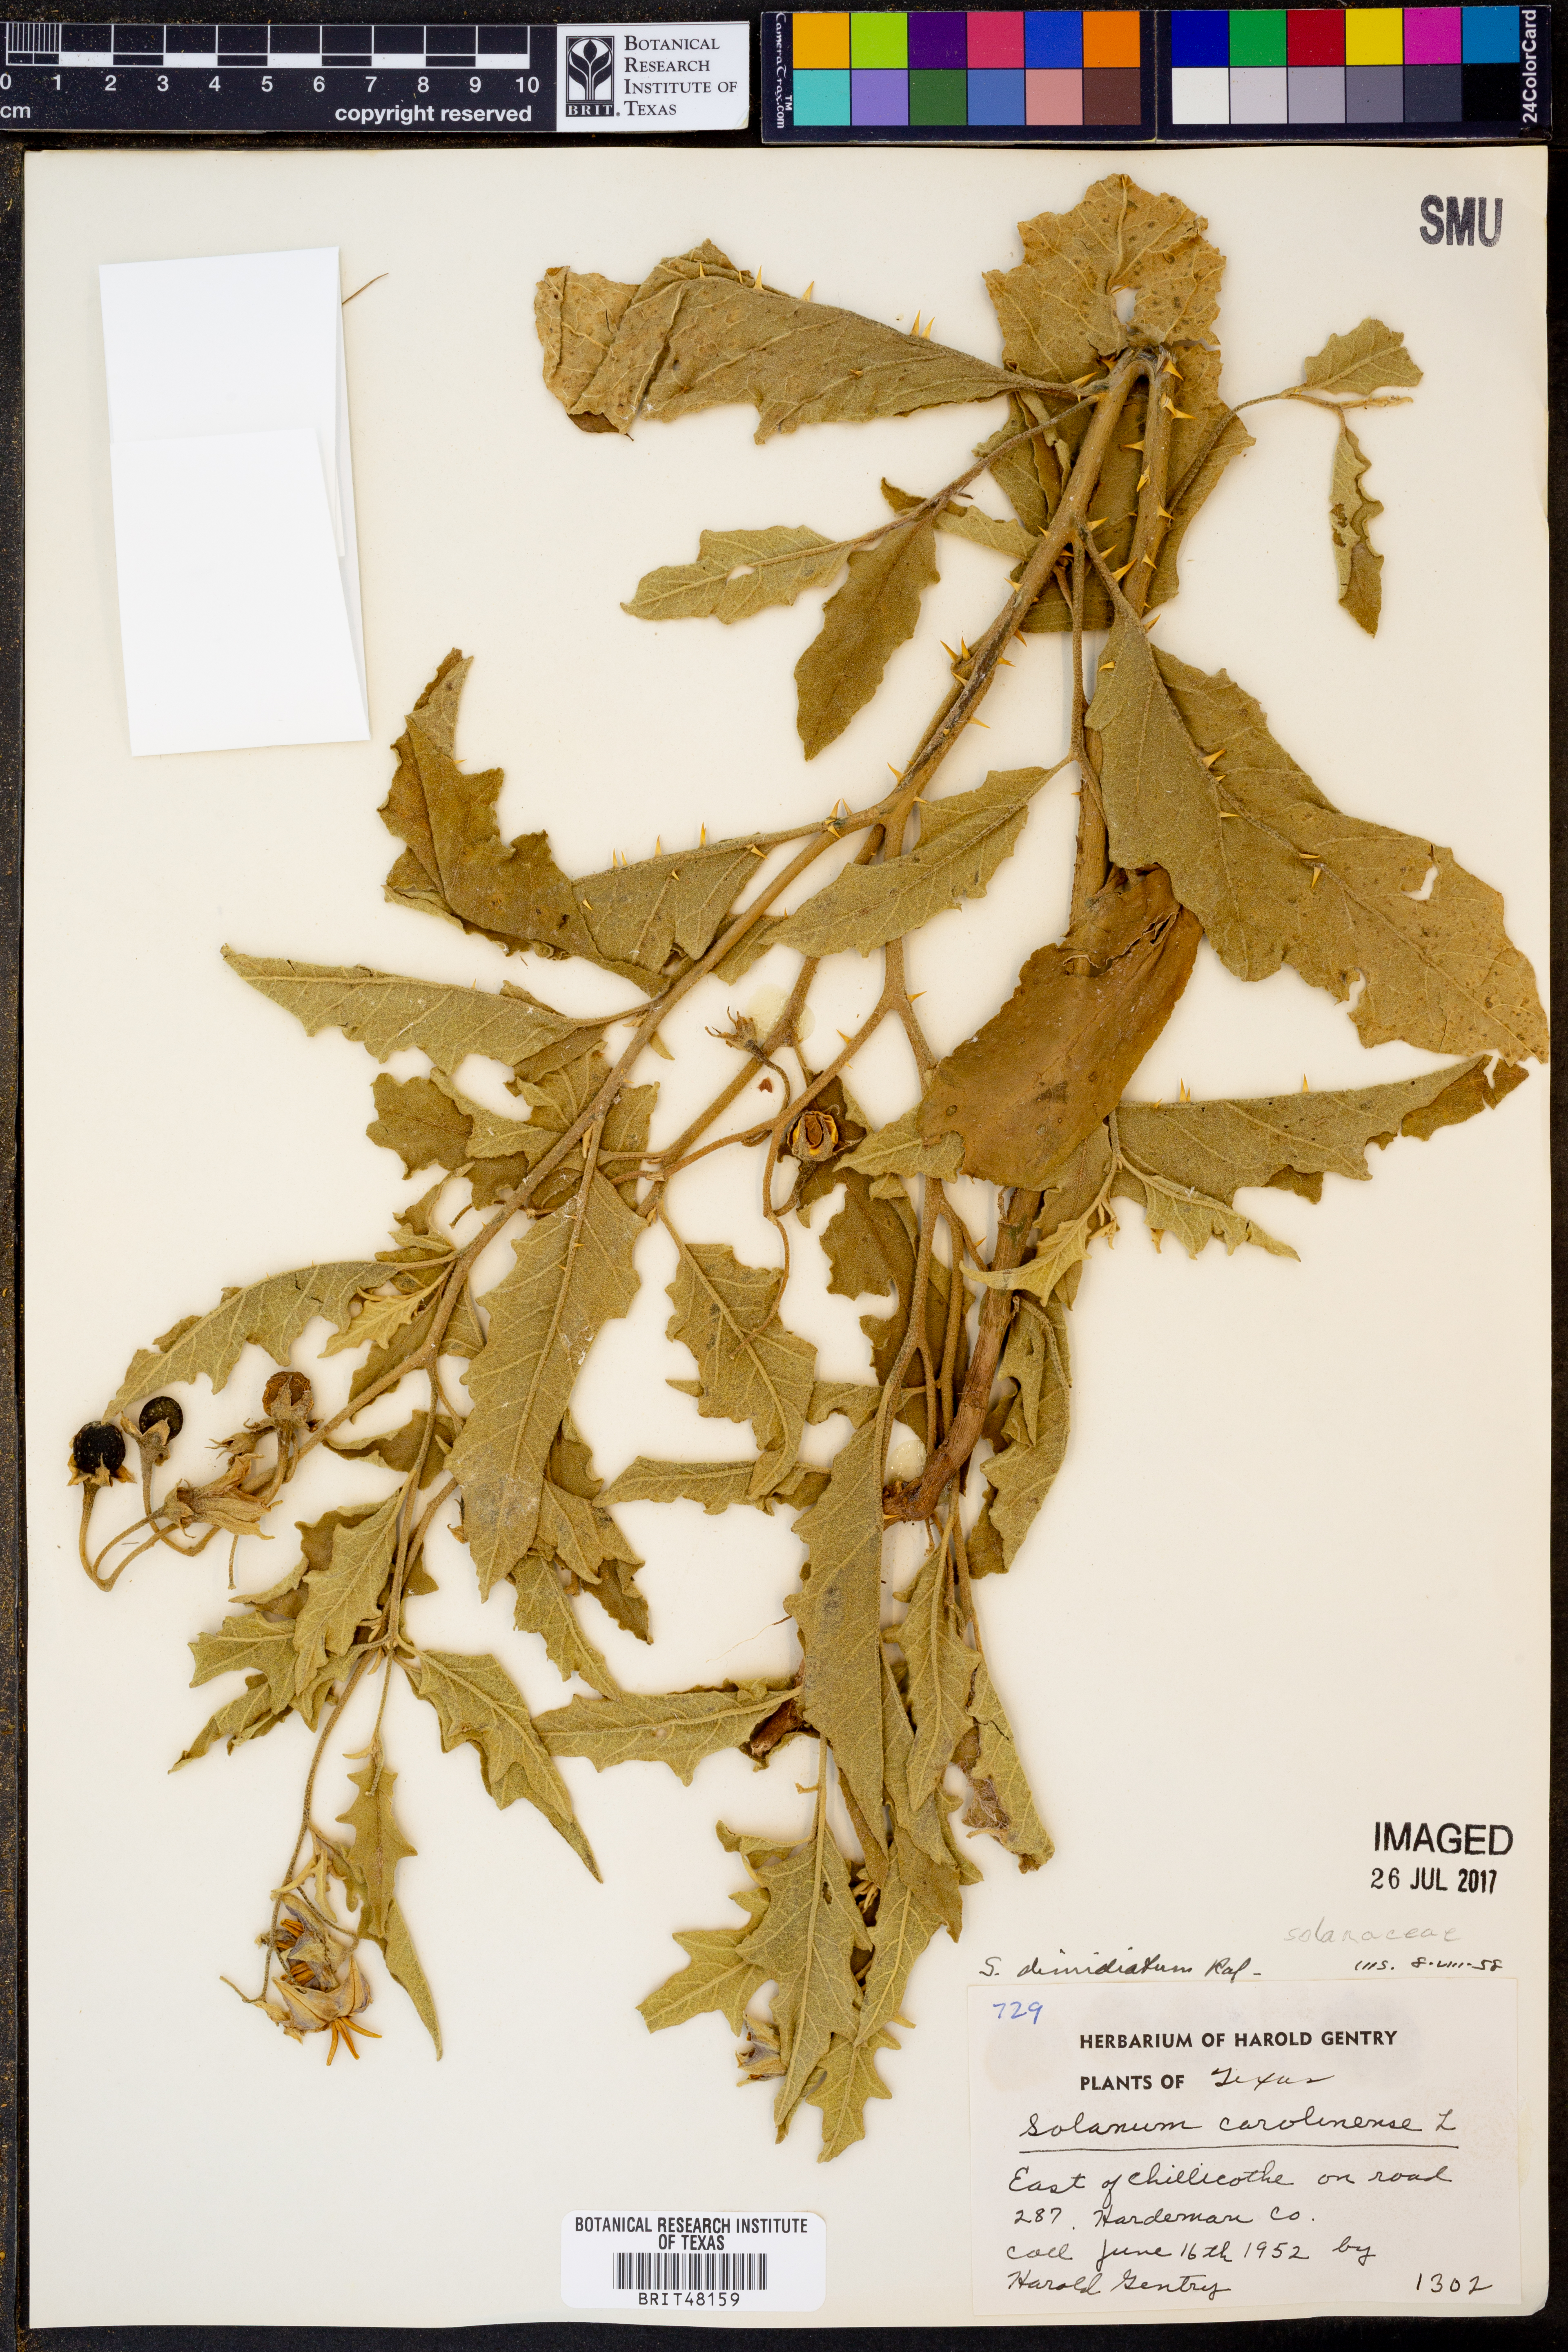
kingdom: Plantae
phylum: Tracheophyta
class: Magnoliopsida
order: Solanales
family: Solanaceae
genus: Solanum
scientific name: Solanum dimidiatum
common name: Carolina horse-nettle
